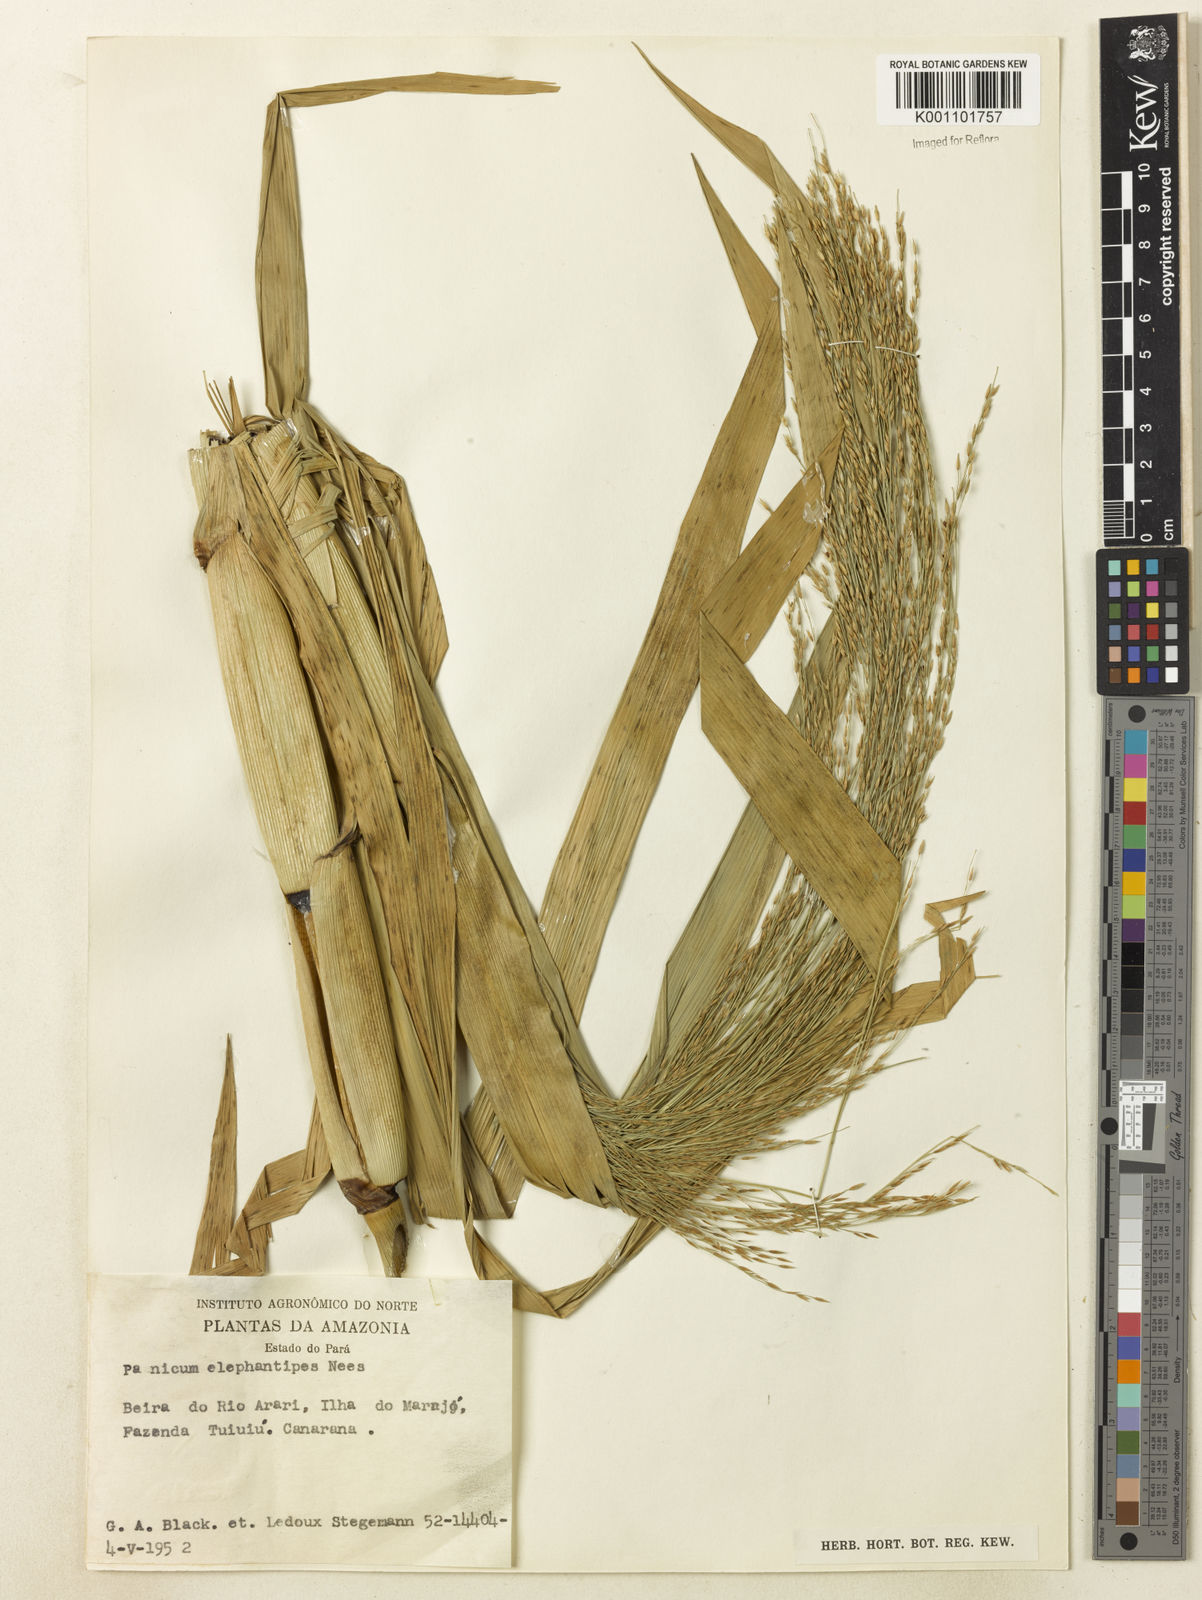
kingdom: Plantae
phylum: Tracheophyta
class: Liliopsida
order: Poales
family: Poaceae
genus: Louisiella
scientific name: Louisiella elephantipes
